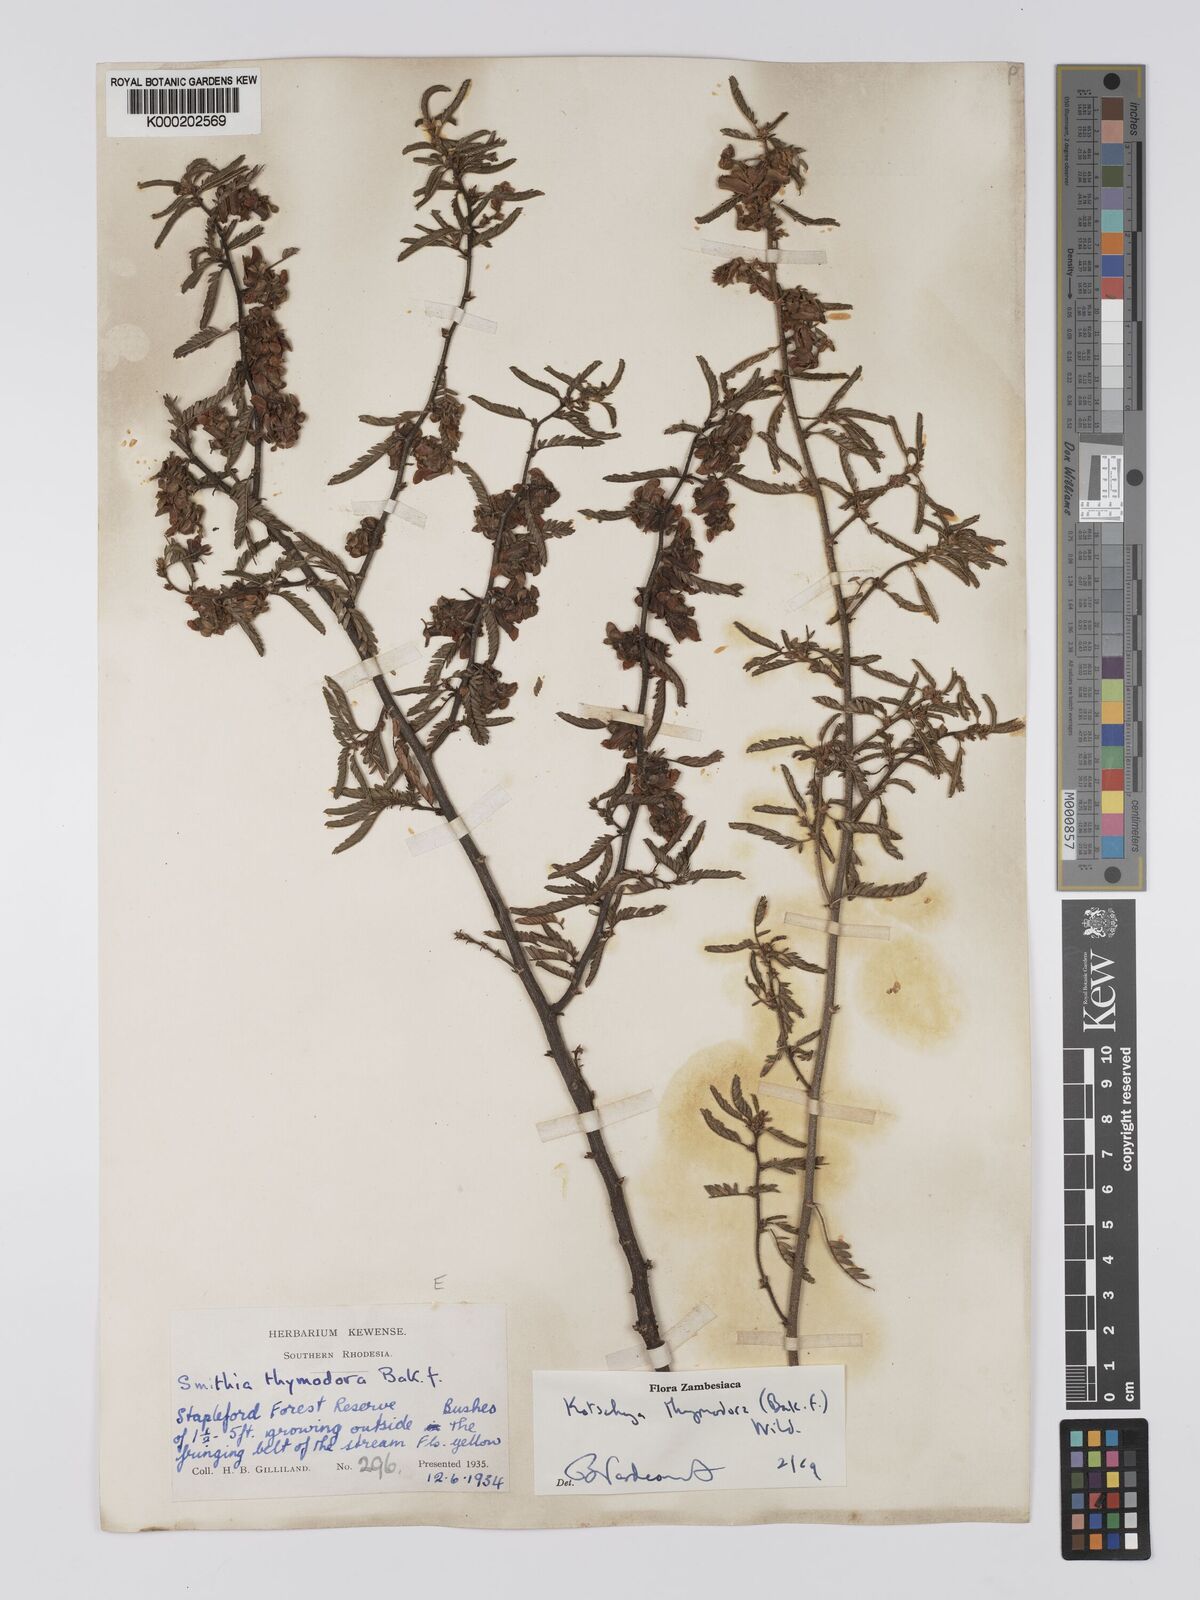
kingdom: Plantae
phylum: Tracheophyta
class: Magnoliopsida
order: Fabales
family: Fabaceae
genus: Kotschya
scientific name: Kotschya thymodora
